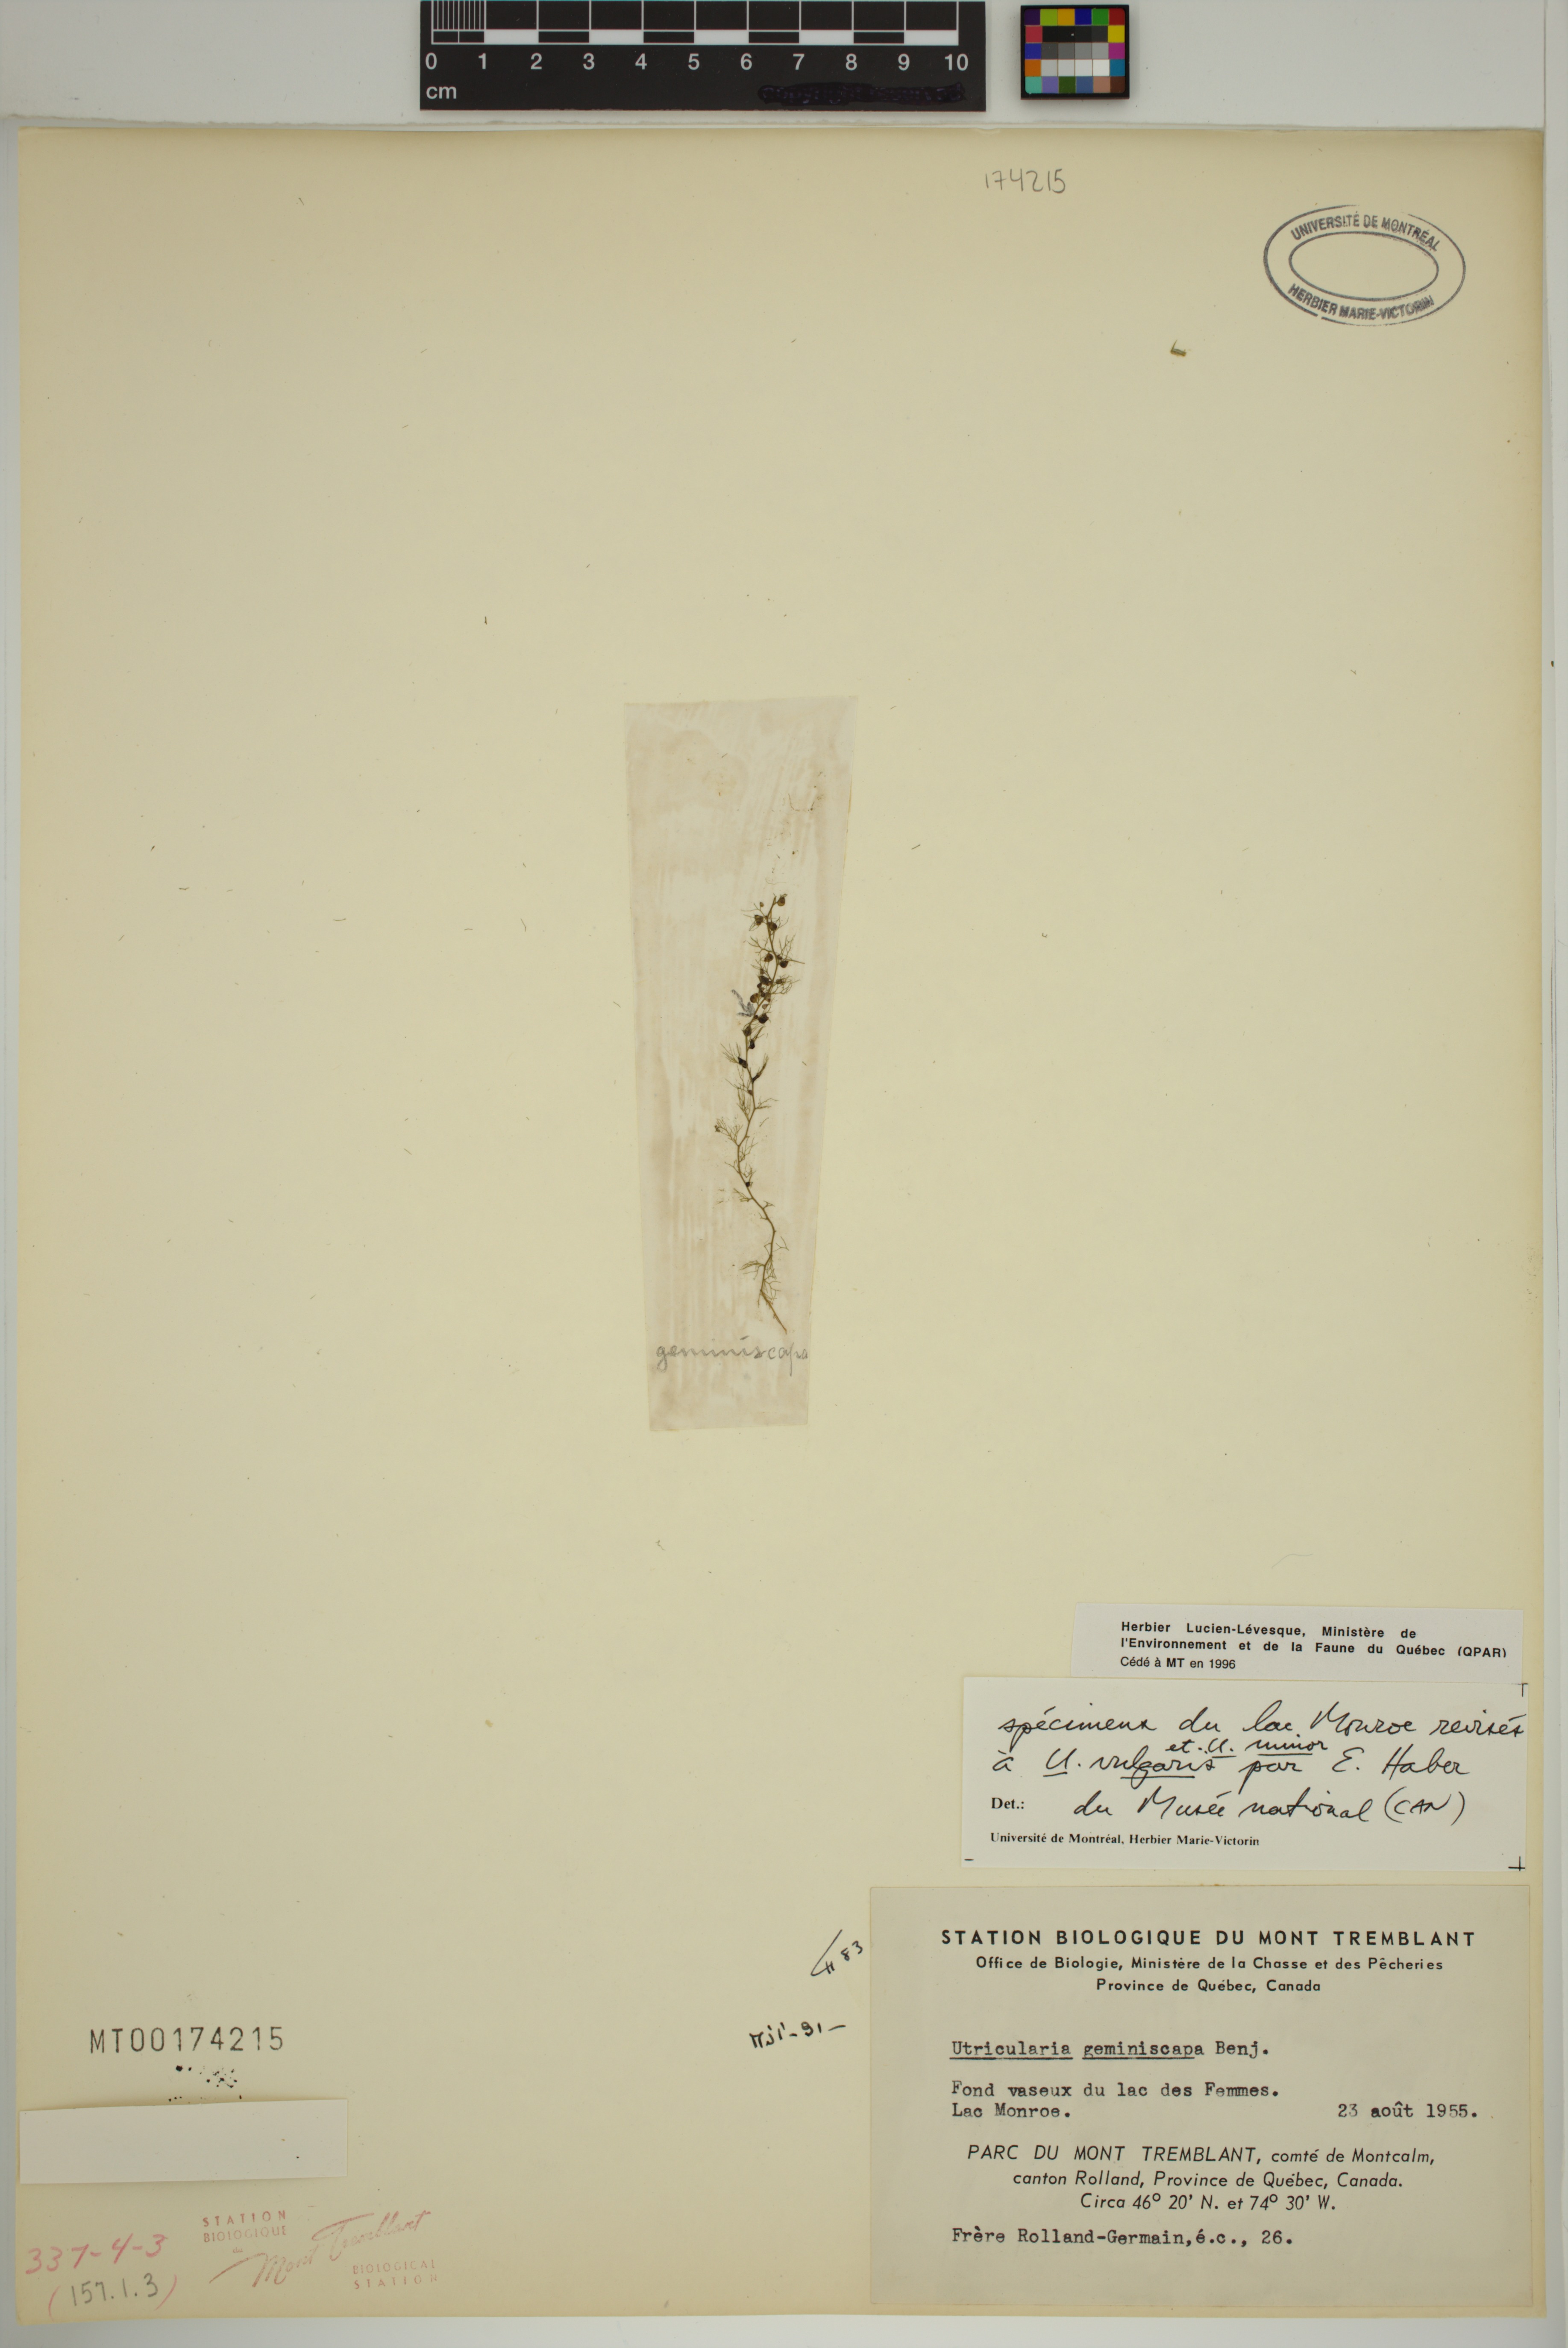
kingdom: Plantae
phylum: Tracheophyta
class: Magnoliopsida
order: Lamiales
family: Lentibulariaceae
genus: Utricularia
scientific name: Utricularia geminiscapa
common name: Hidden-fruit bladderwort
